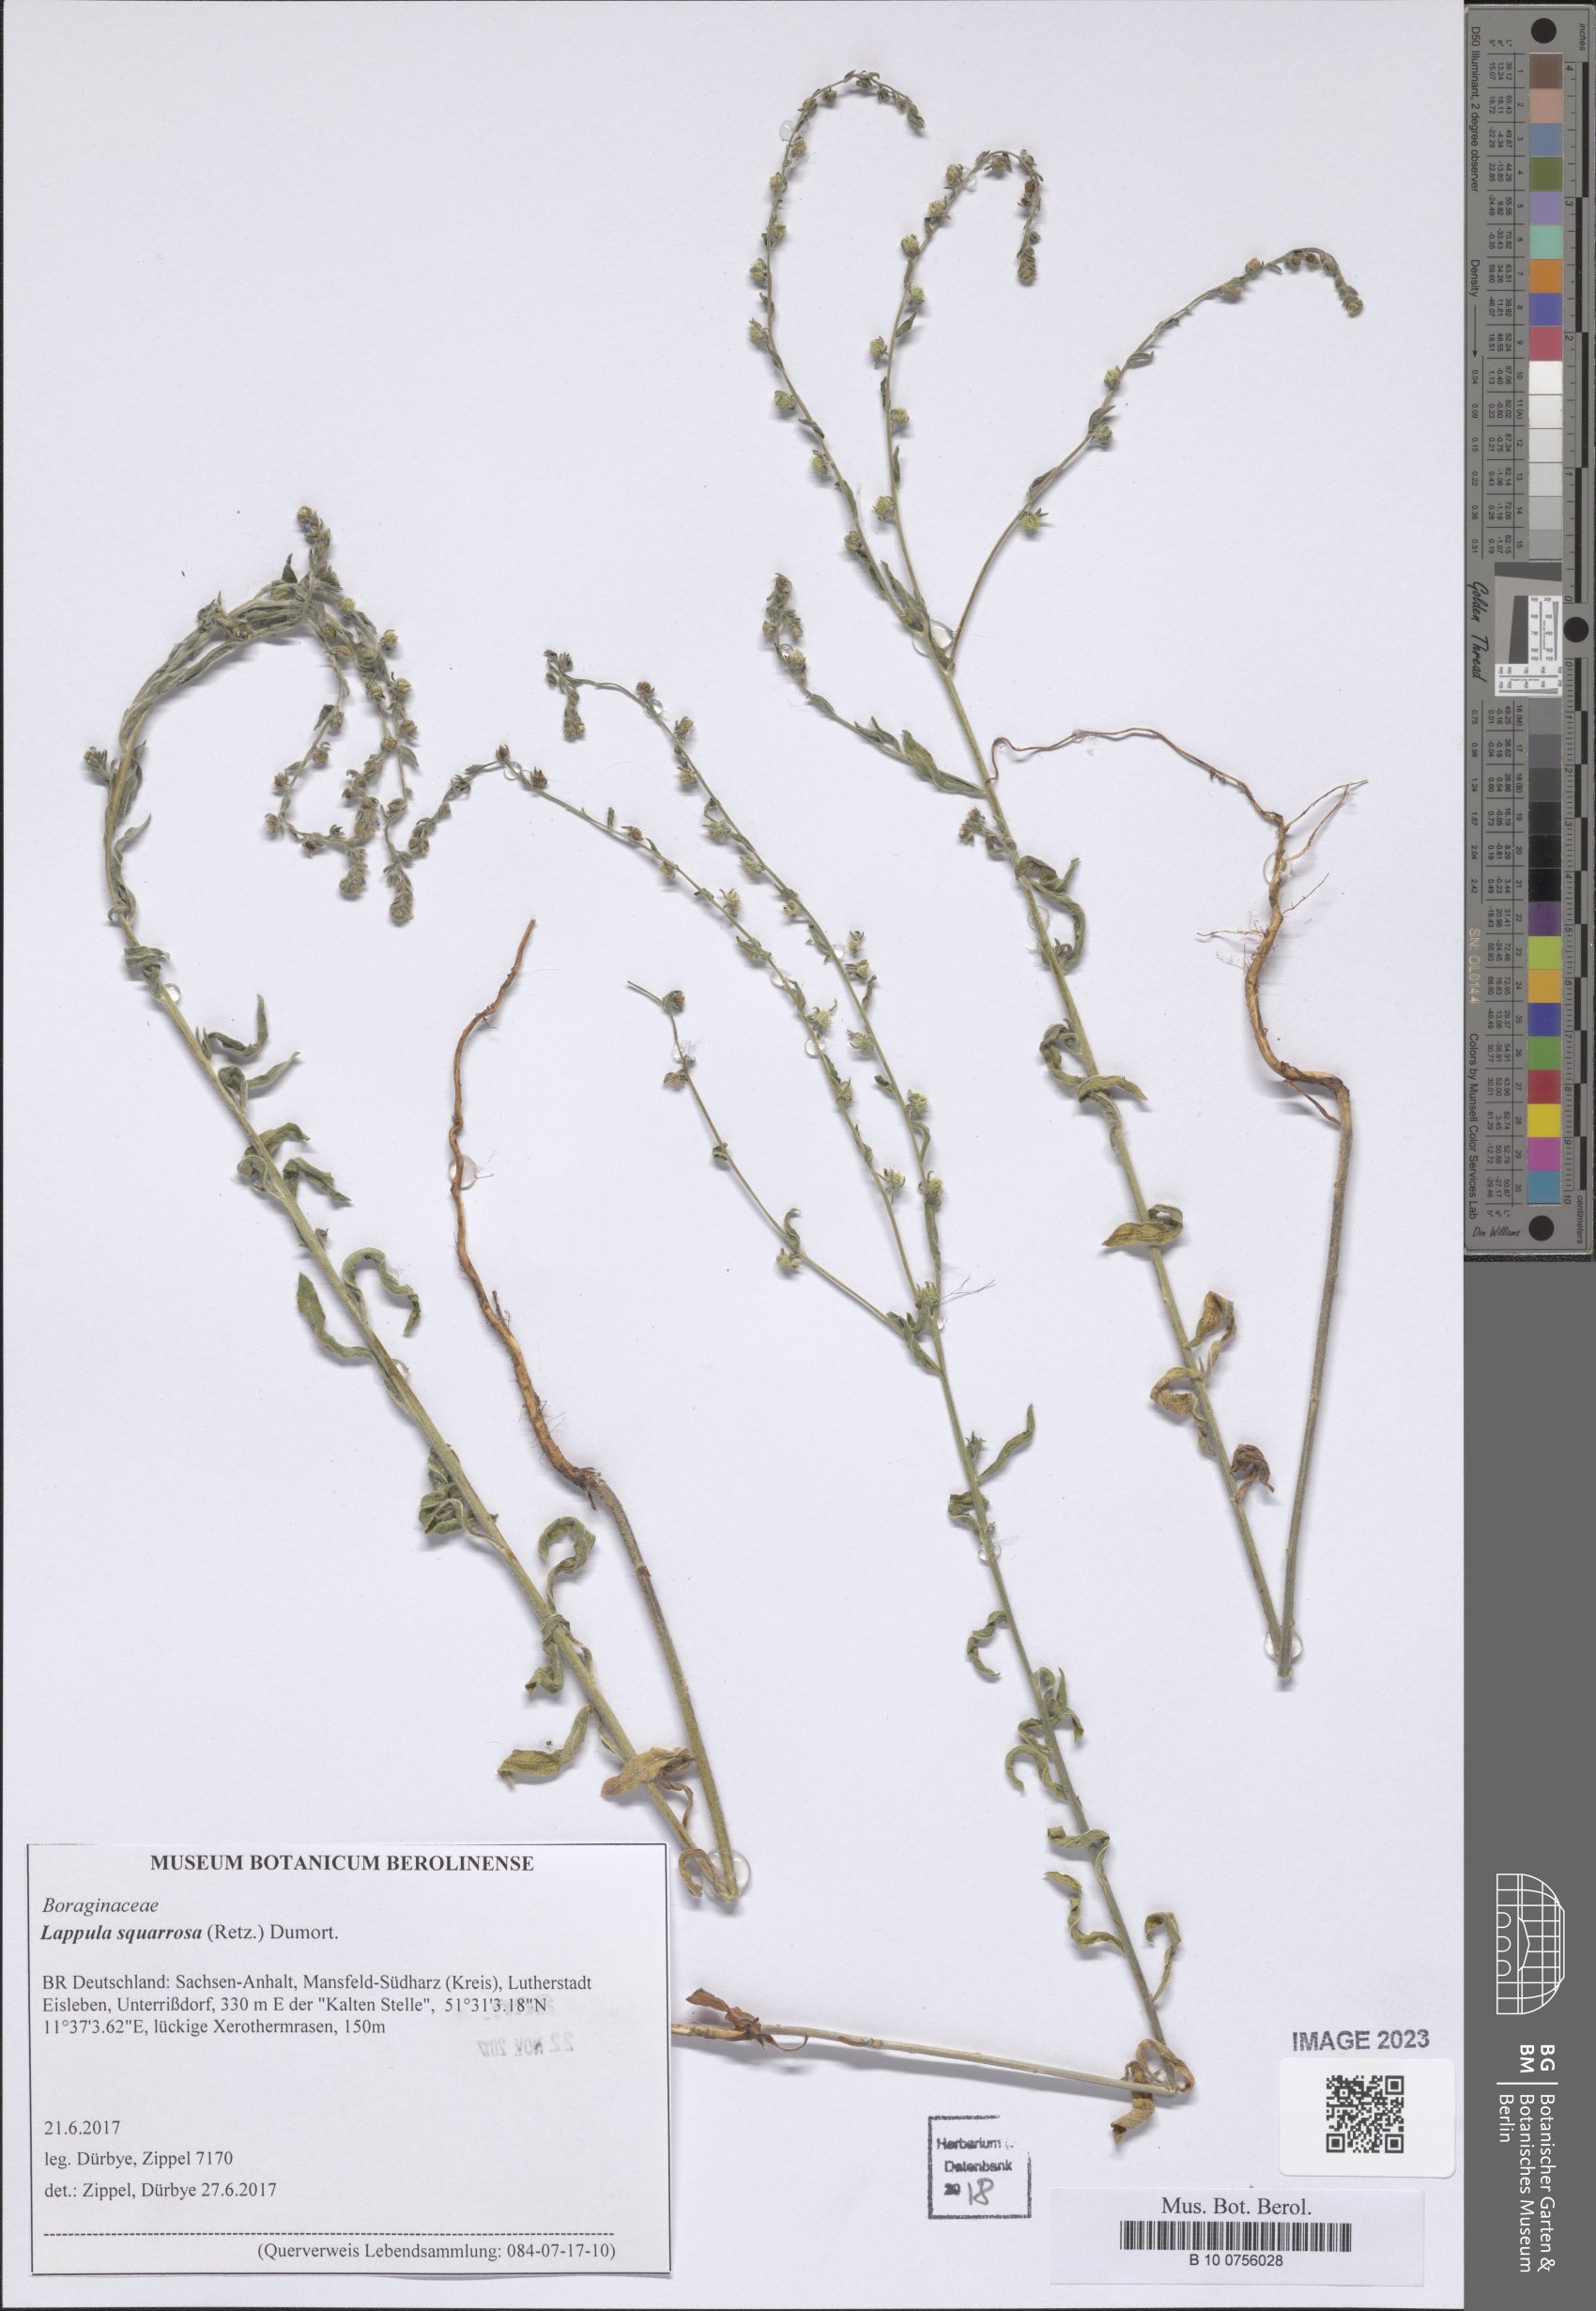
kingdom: Plantae
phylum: Tracheophyta
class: Magnoliopsida
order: Boraginales
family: Boraginaceae
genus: Lappula
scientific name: Lappula squarrosa
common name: European stickseed
